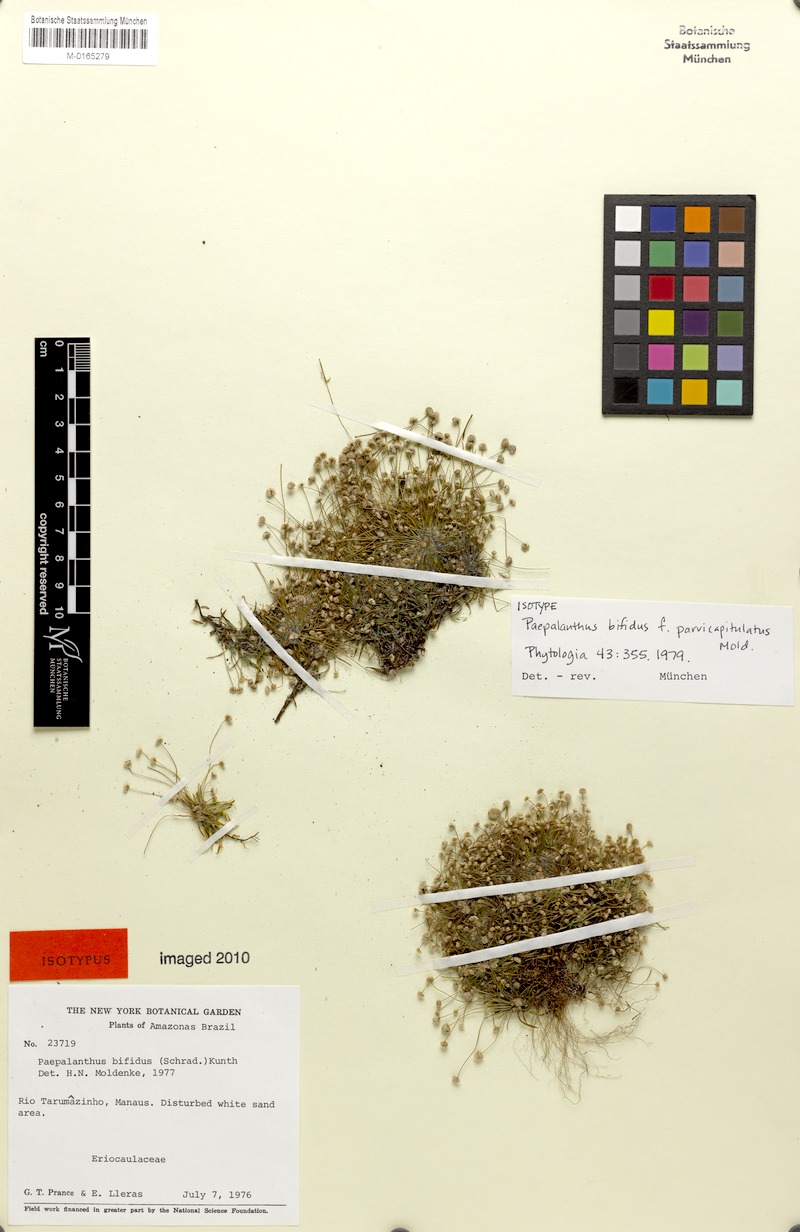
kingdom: Plantae
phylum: Tracheophyta
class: Liliopsida
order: Poales
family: Eriocaulaceae
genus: Paepalanthus
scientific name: Paepalanthus bifidus
